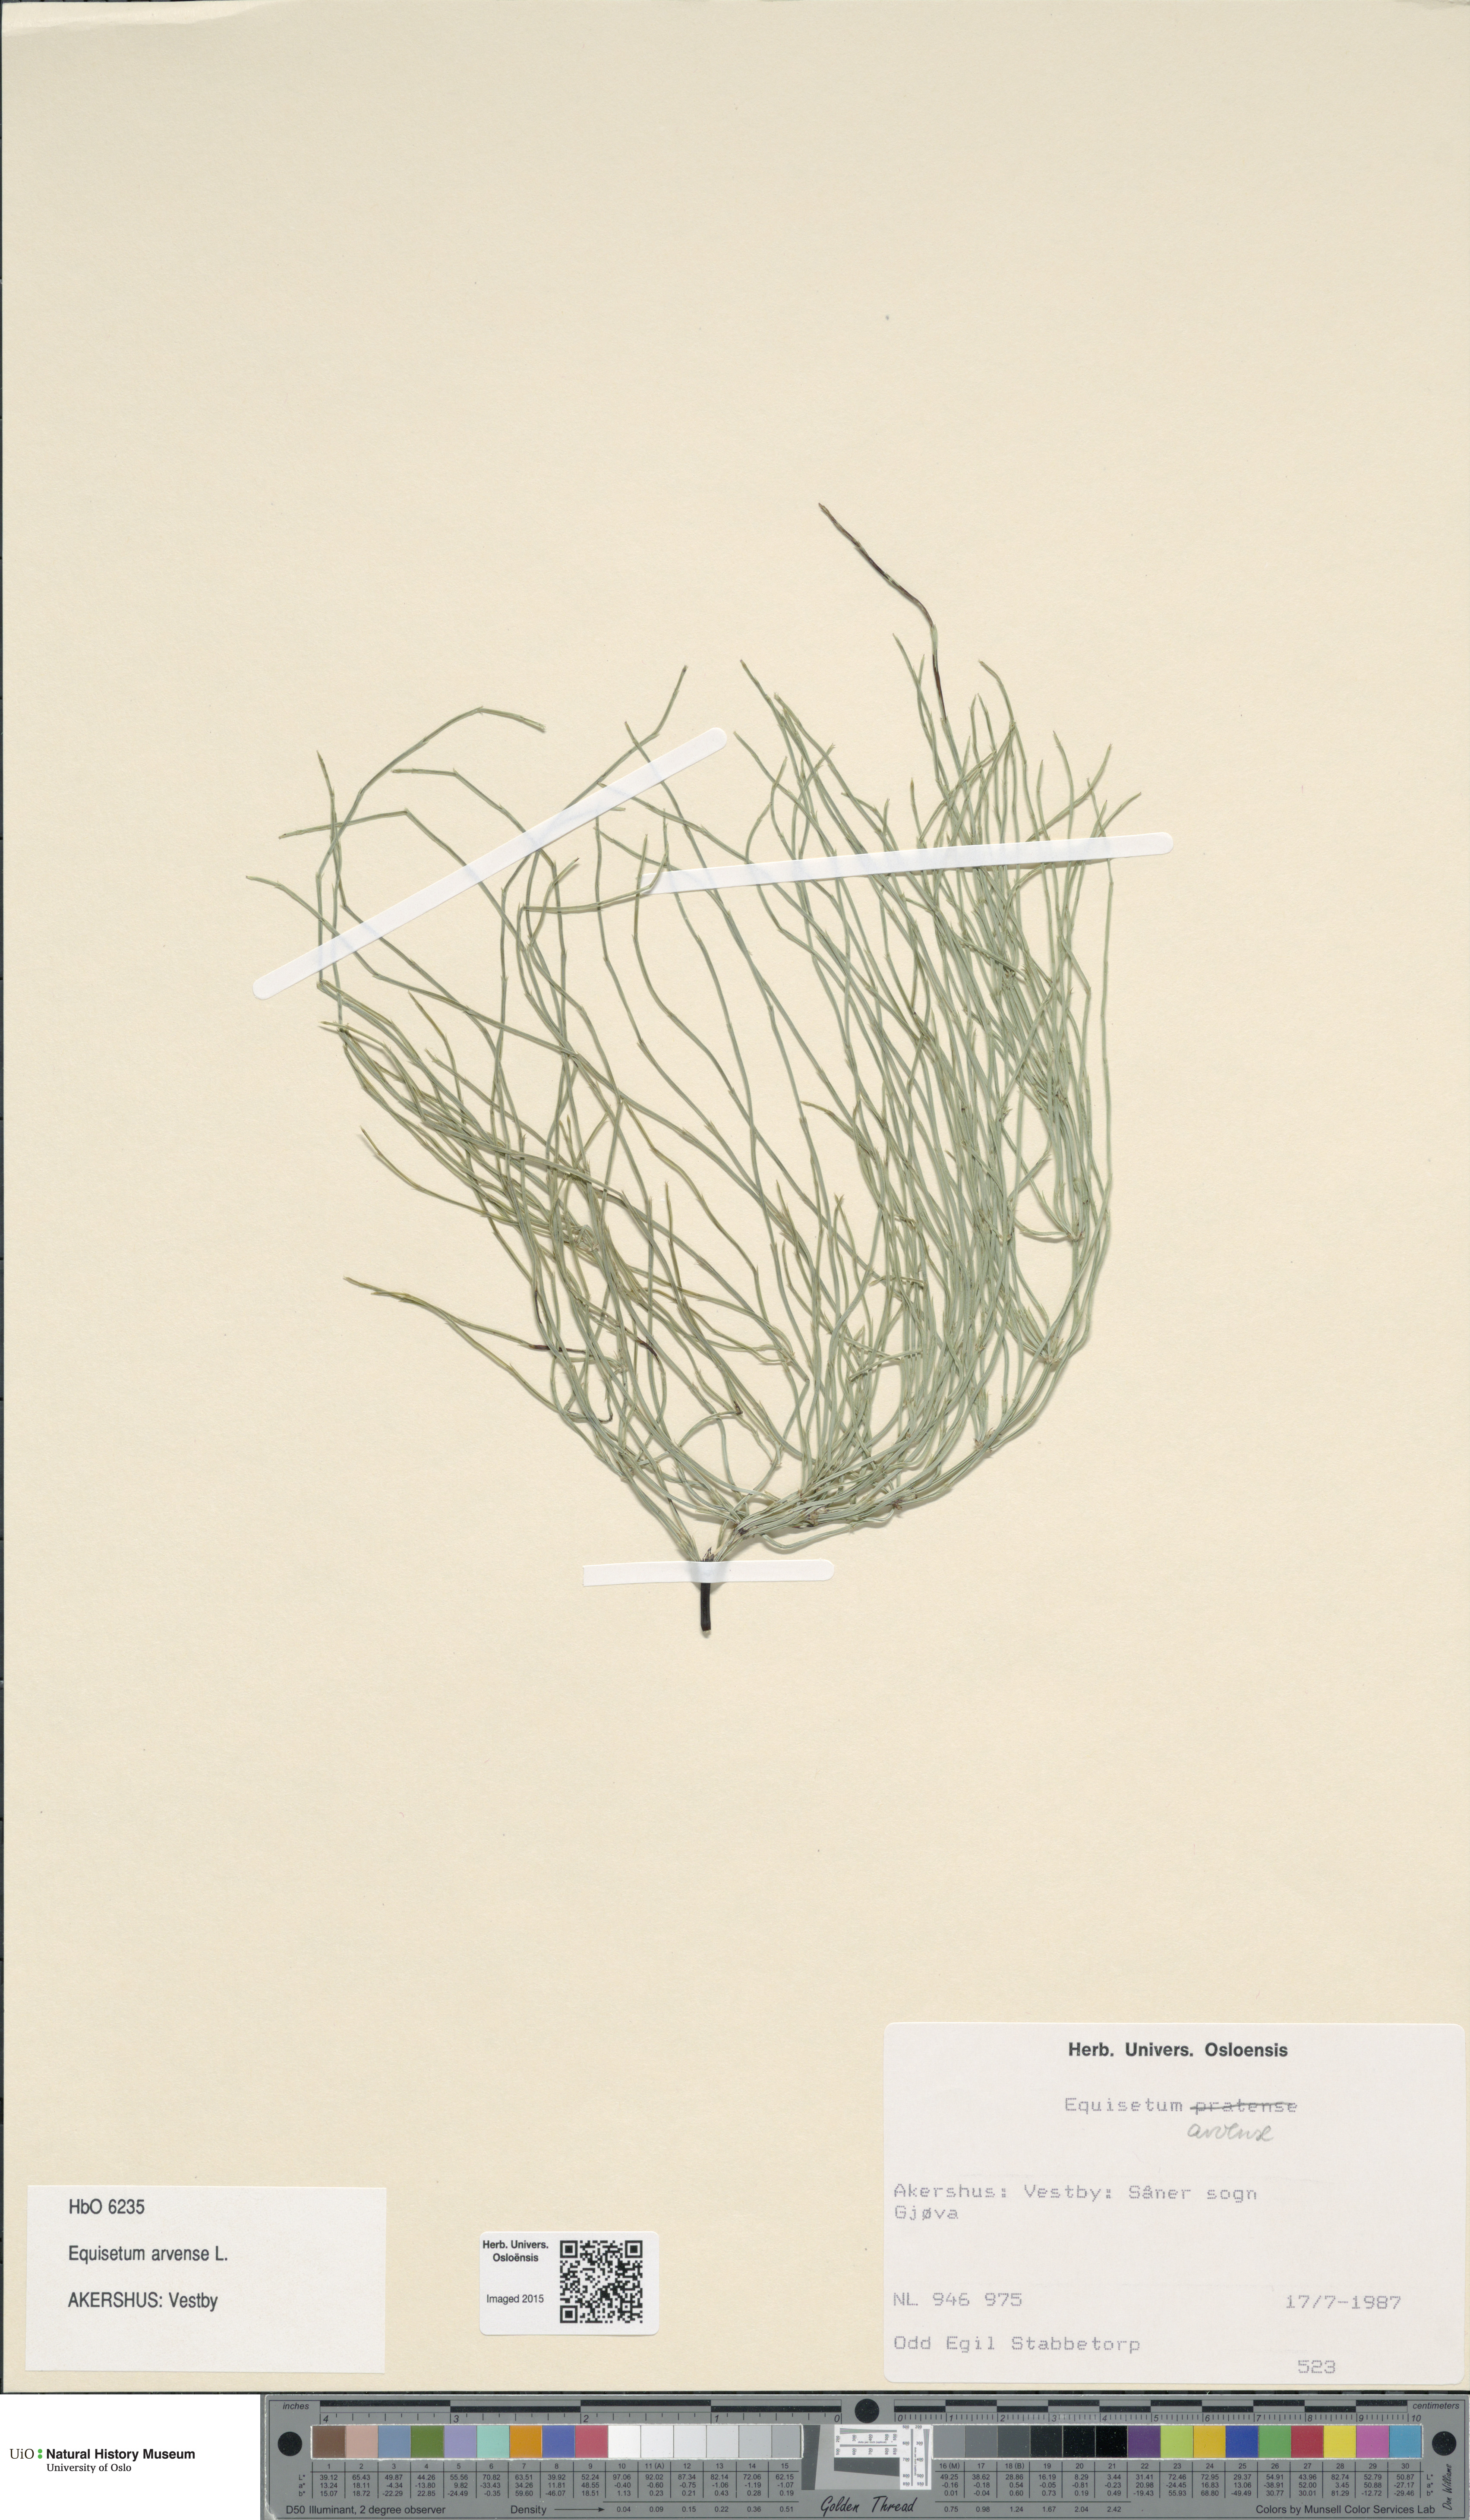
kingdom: Plantae
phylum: Tracheophyta
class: Polypodiopsida
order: Equisetales
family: Equisetaceae
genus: Equisetum
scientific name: Equisetum arvense
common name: Field horsetail
